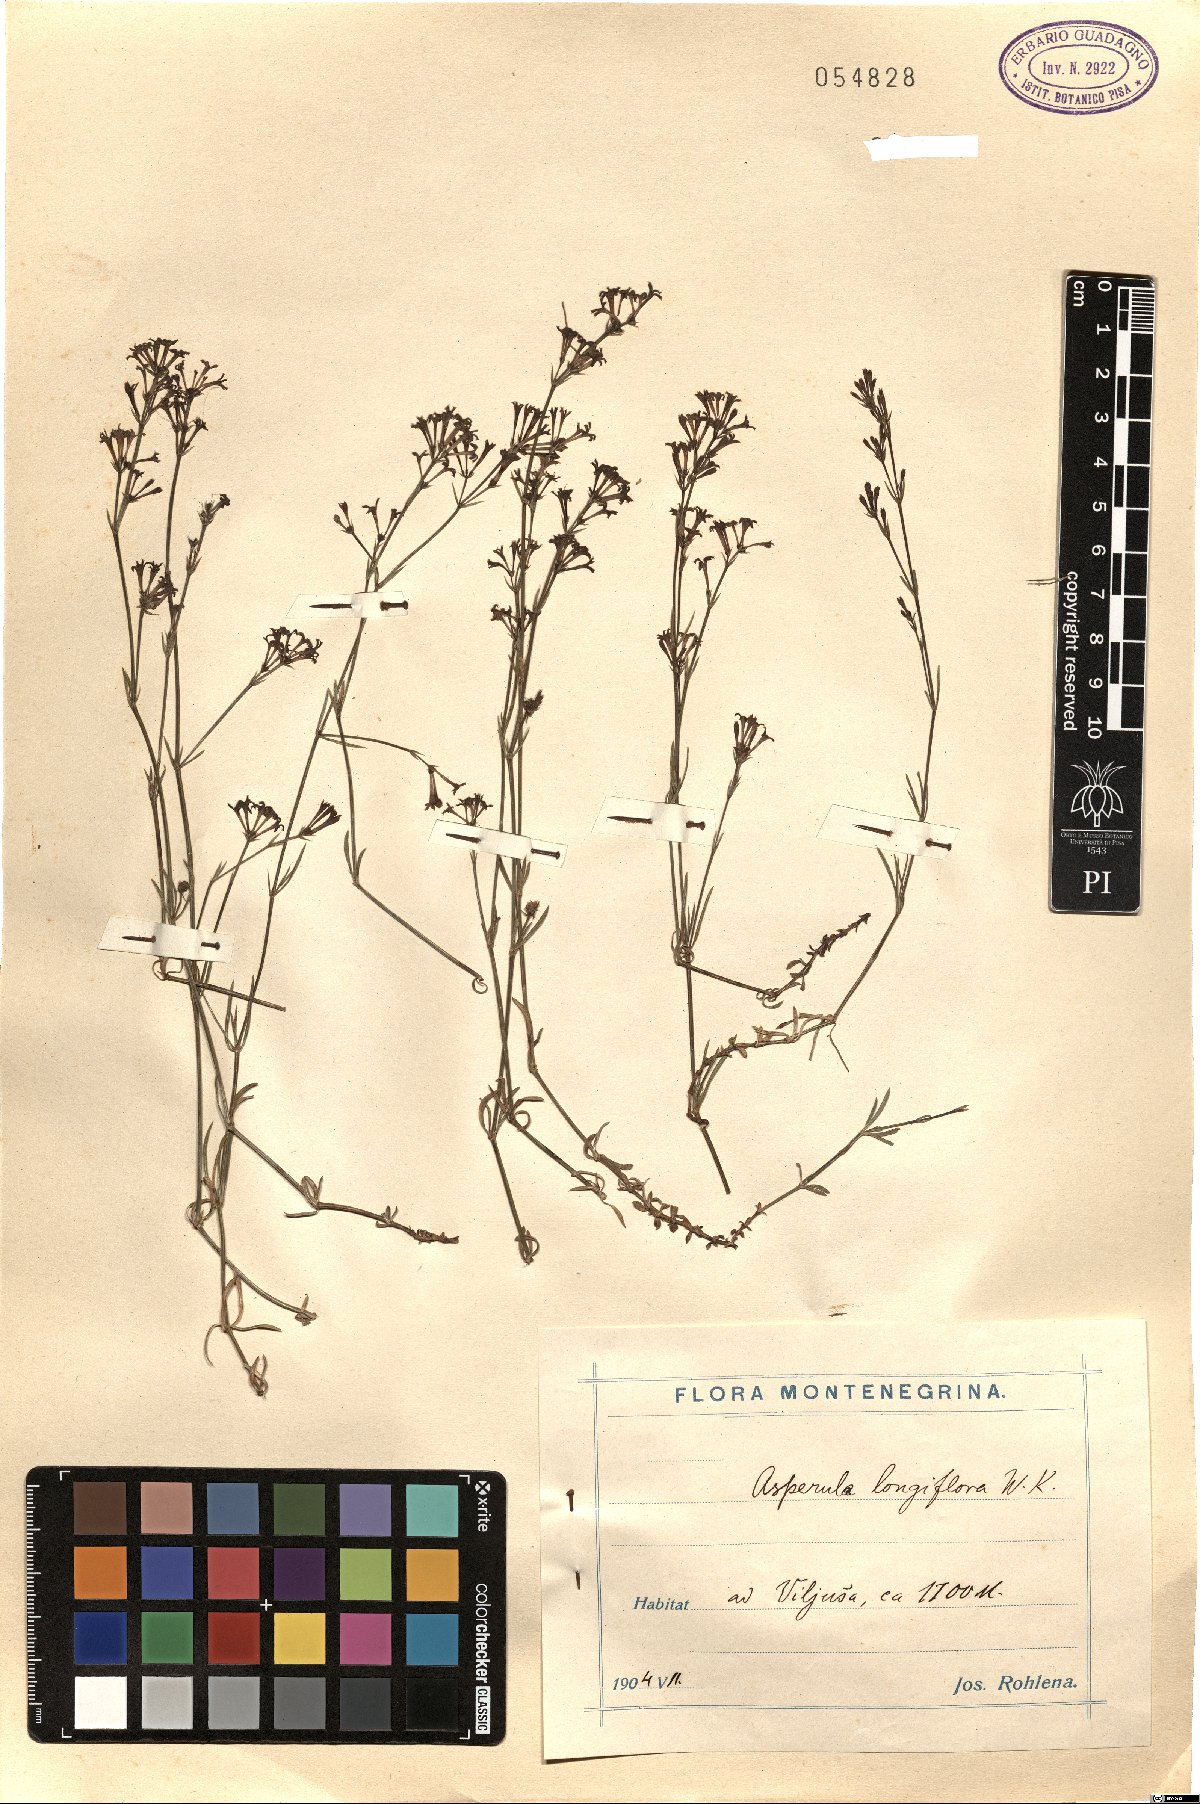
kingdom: Plantae
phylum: Tracheophyta
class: Magnoliopsida
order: Gentianales
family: Rubiaceae
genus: Cynanchica
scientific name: Cynanchica aristata
